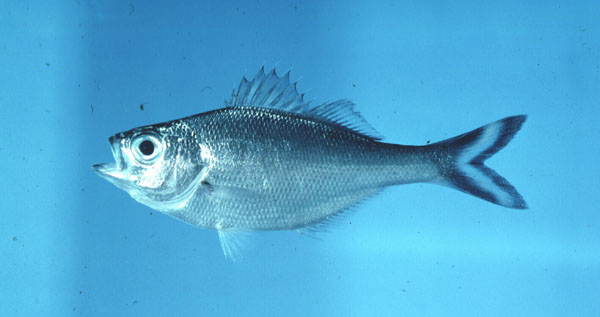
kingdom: Animalia
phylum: Chordata
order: Perciformes
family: Kuhliidae
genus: Kuhlia
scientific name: Kuhlia marginata
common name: Spotted flagtail
